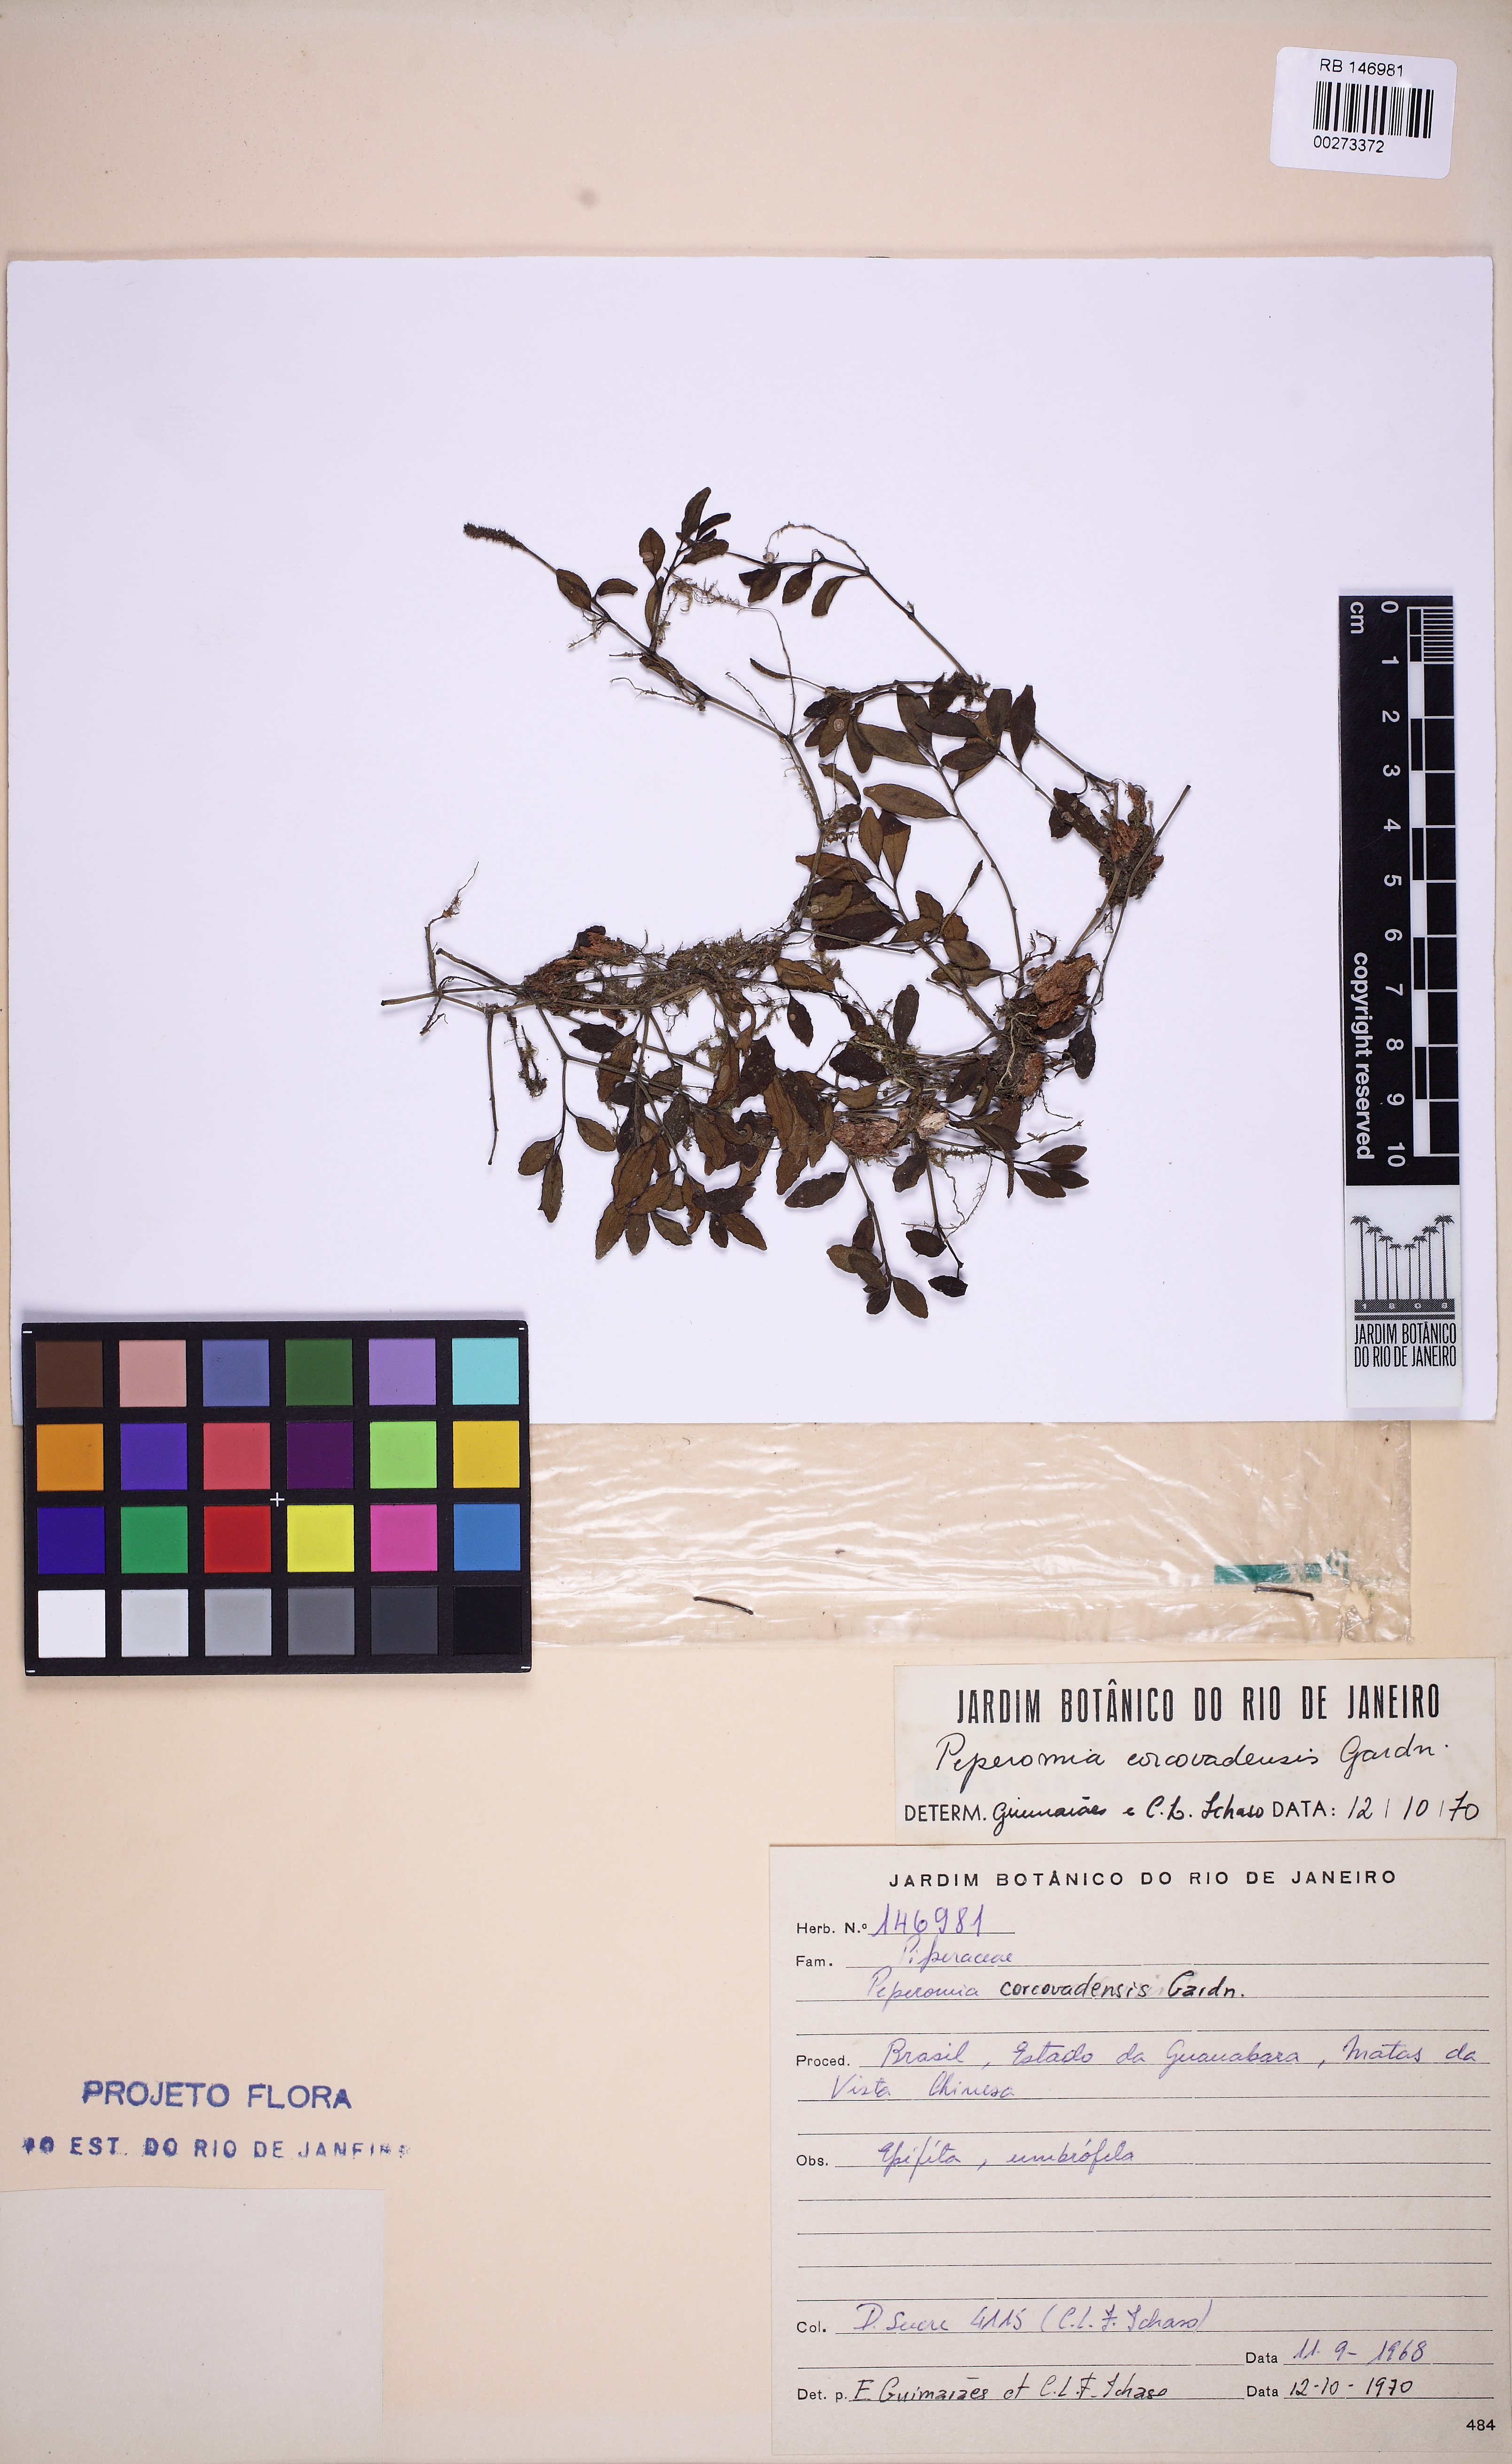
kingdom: Plantae
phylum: Tracheophyta
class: Magnoliopsida
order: Piperales
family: Piperaceae
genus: Peperomia
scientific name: Peperomia corcovadensis
